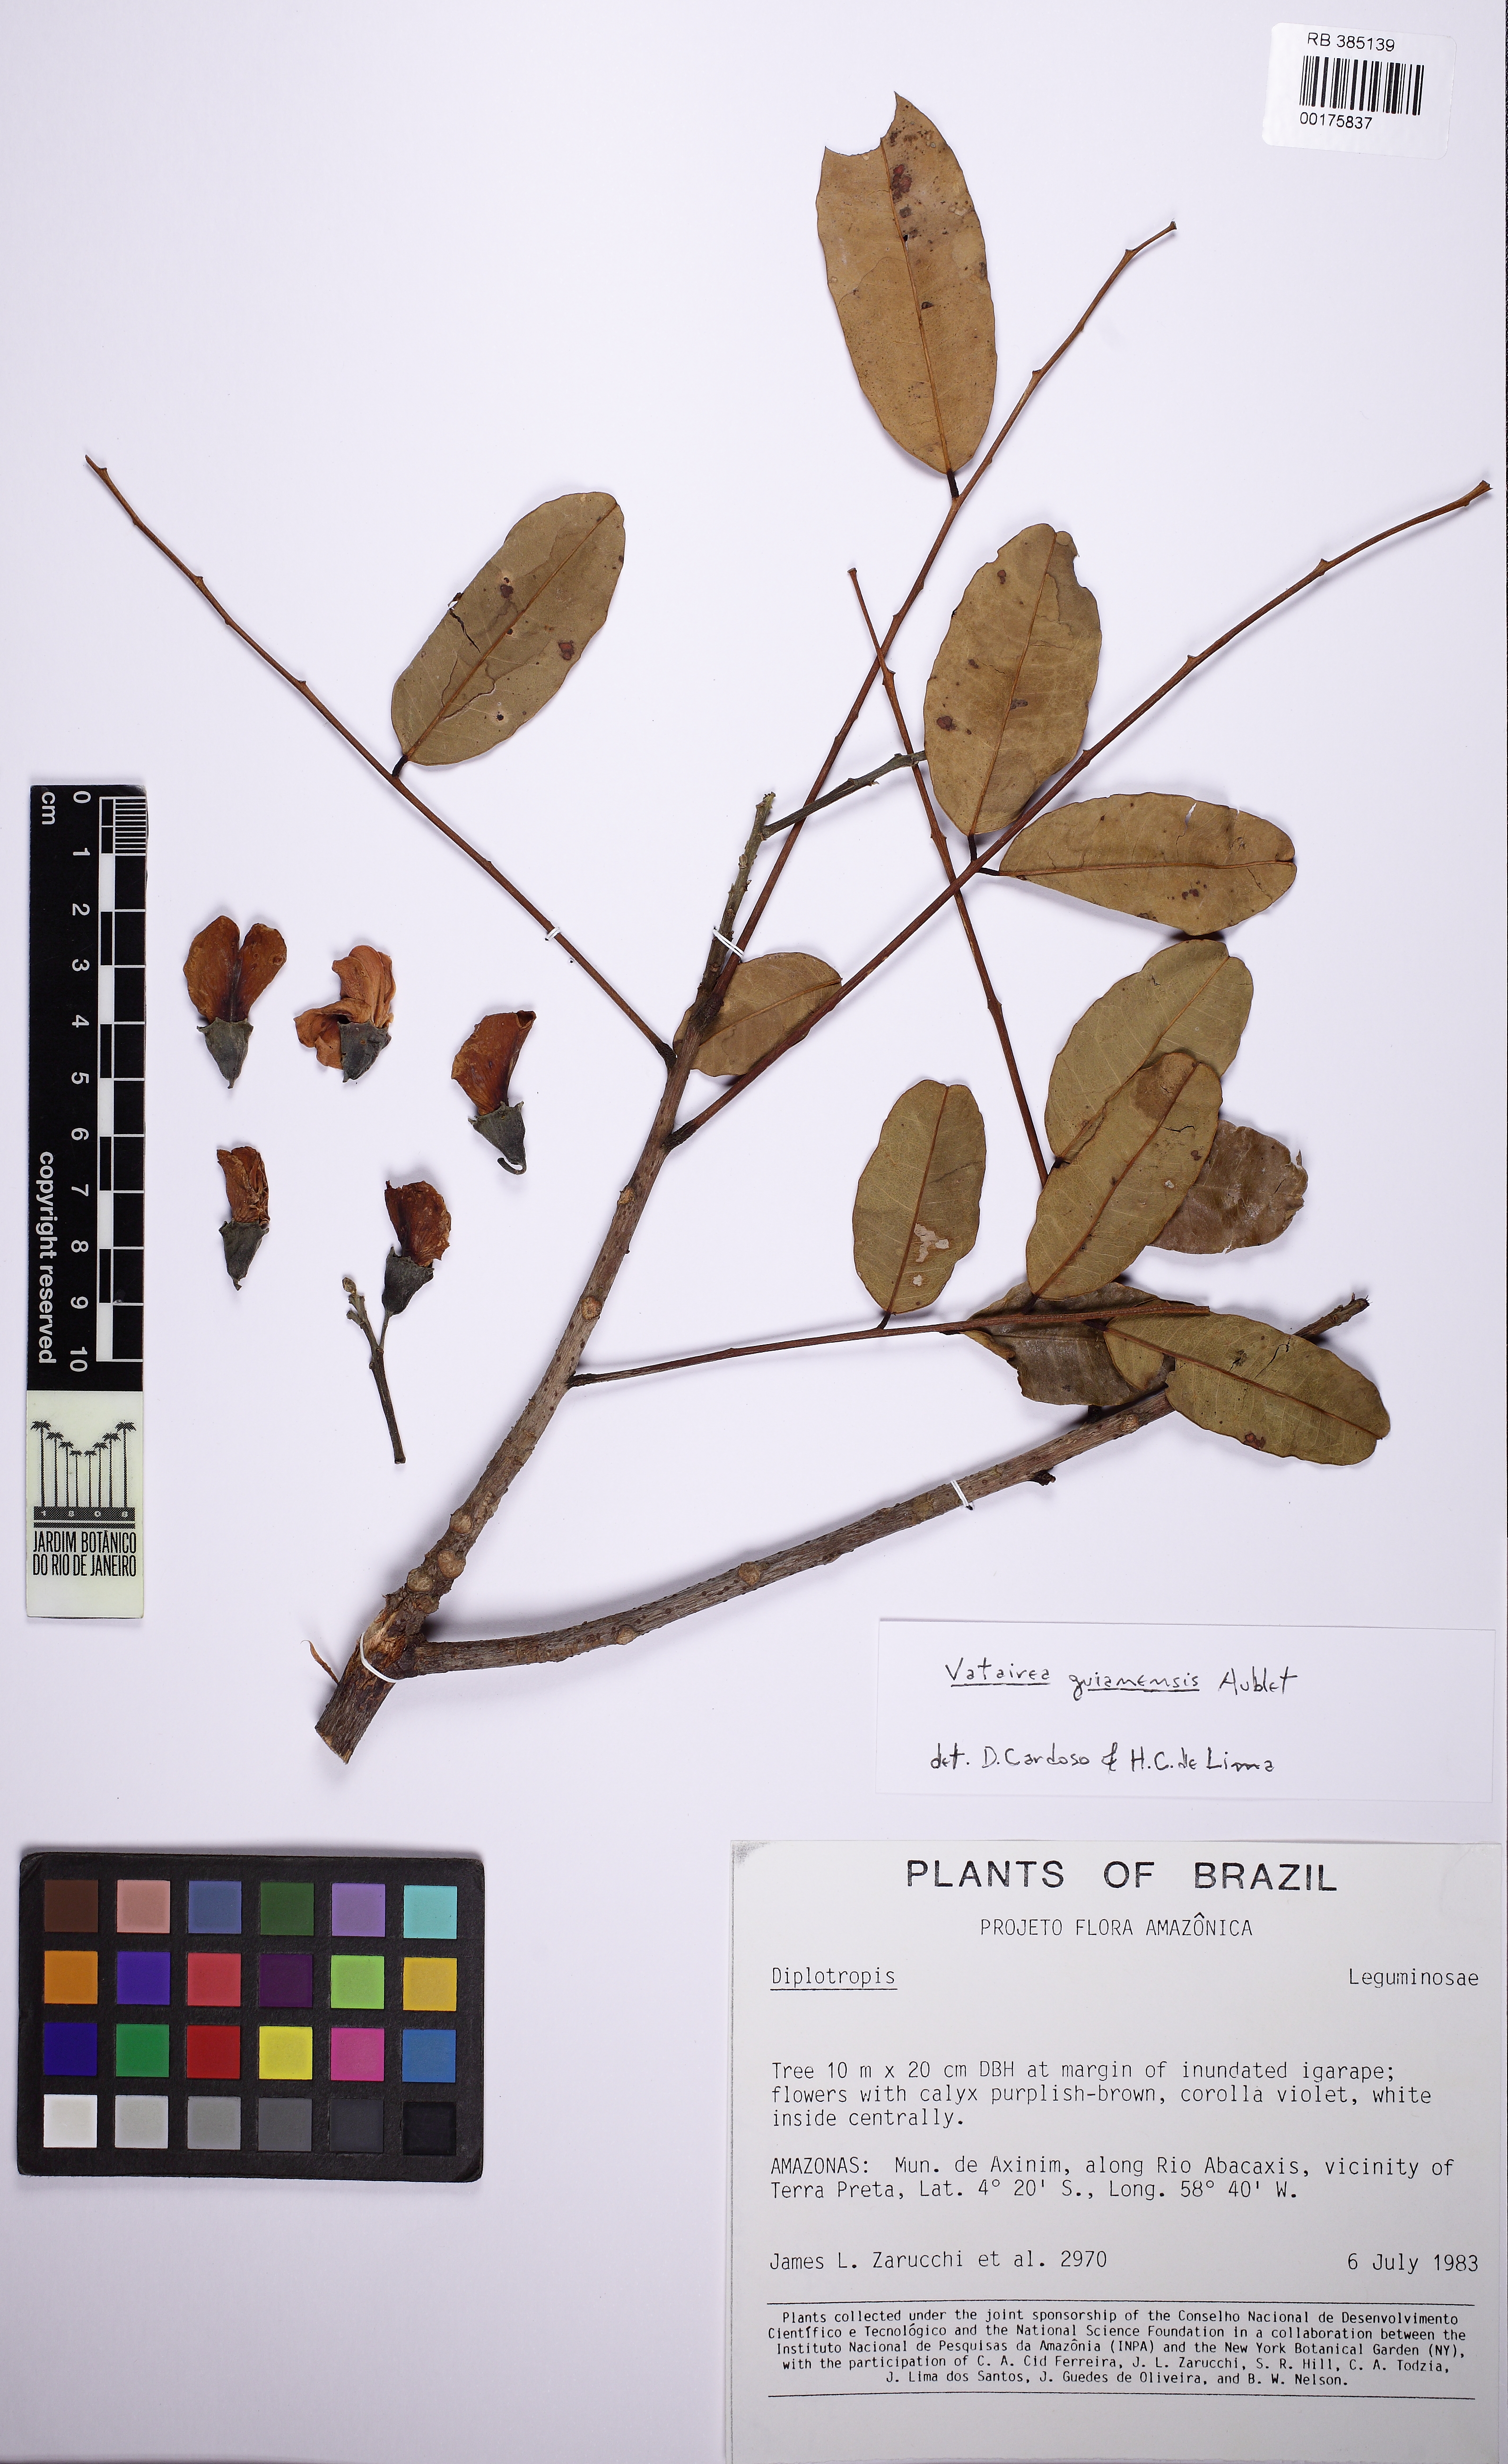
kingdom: Plantae
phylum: Tracheophyta
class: Magnoliopsida
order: Fabales
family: Fabaceae
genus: Vatairea
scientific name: Vatairea guianensis
